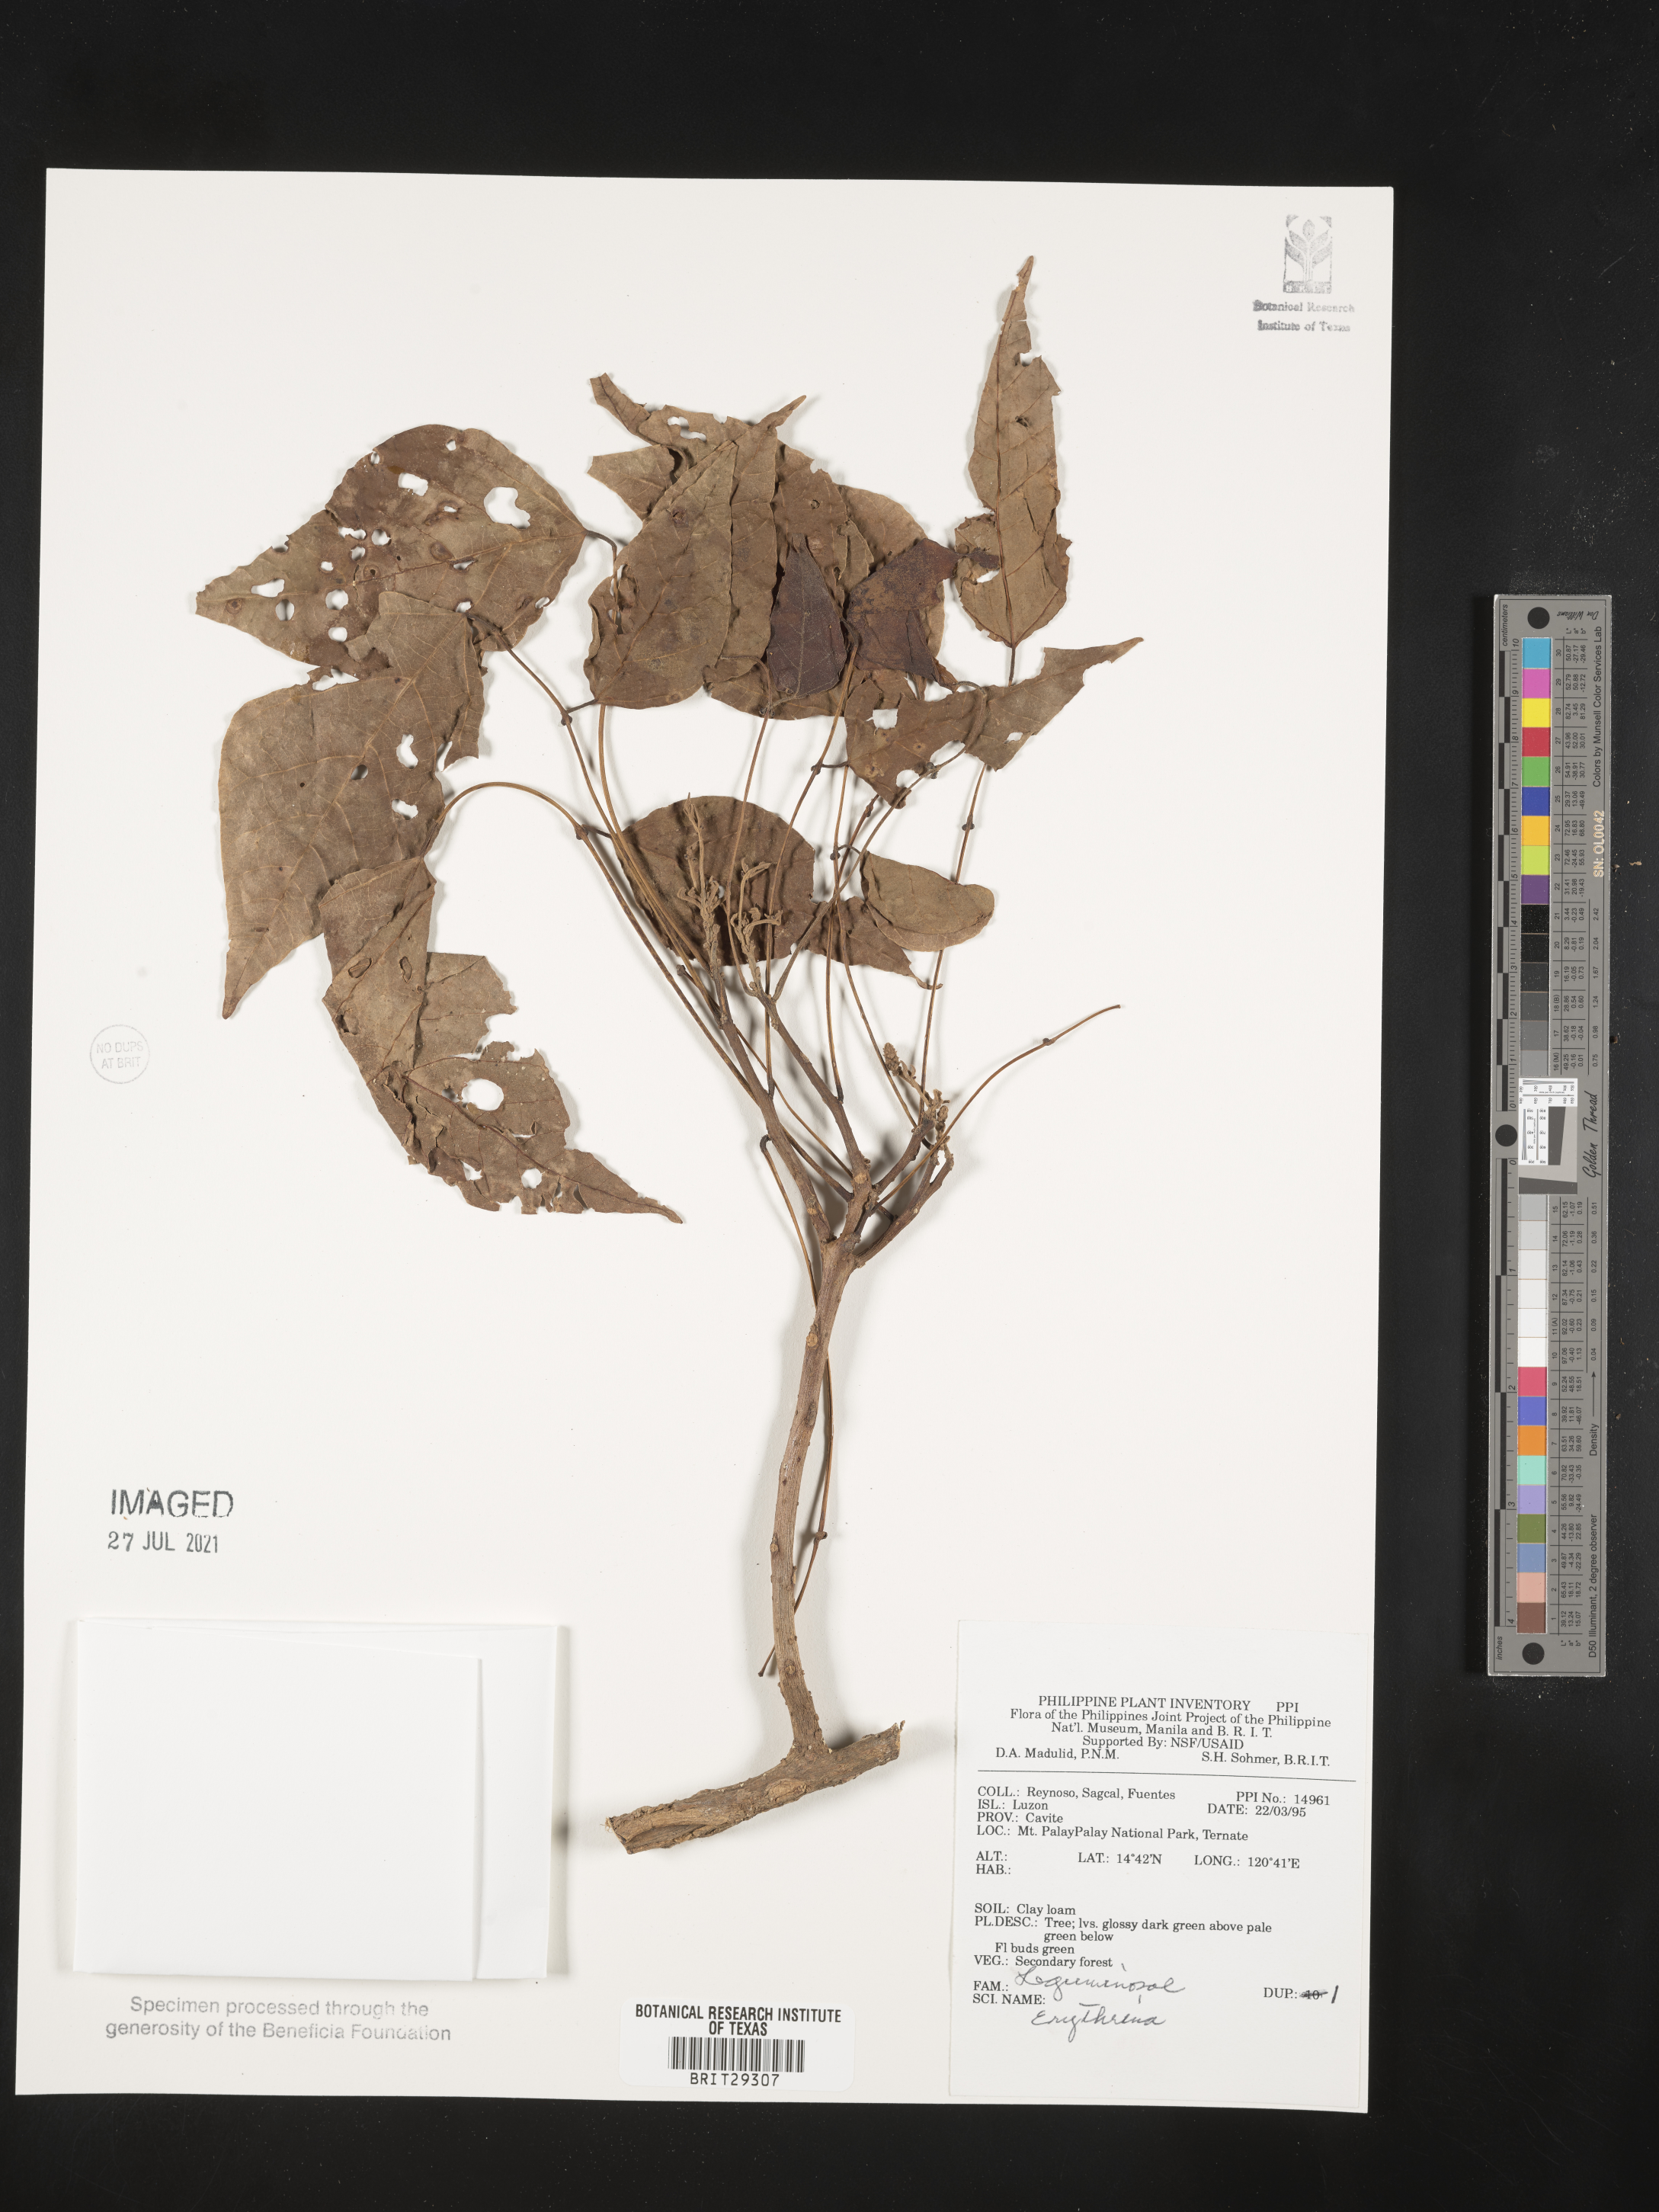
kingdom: Plantae
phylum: Tracheophyta
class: Magnoliopsida
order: Fabales
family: Fabaceae
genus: Erythrina
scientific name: Erythrina
